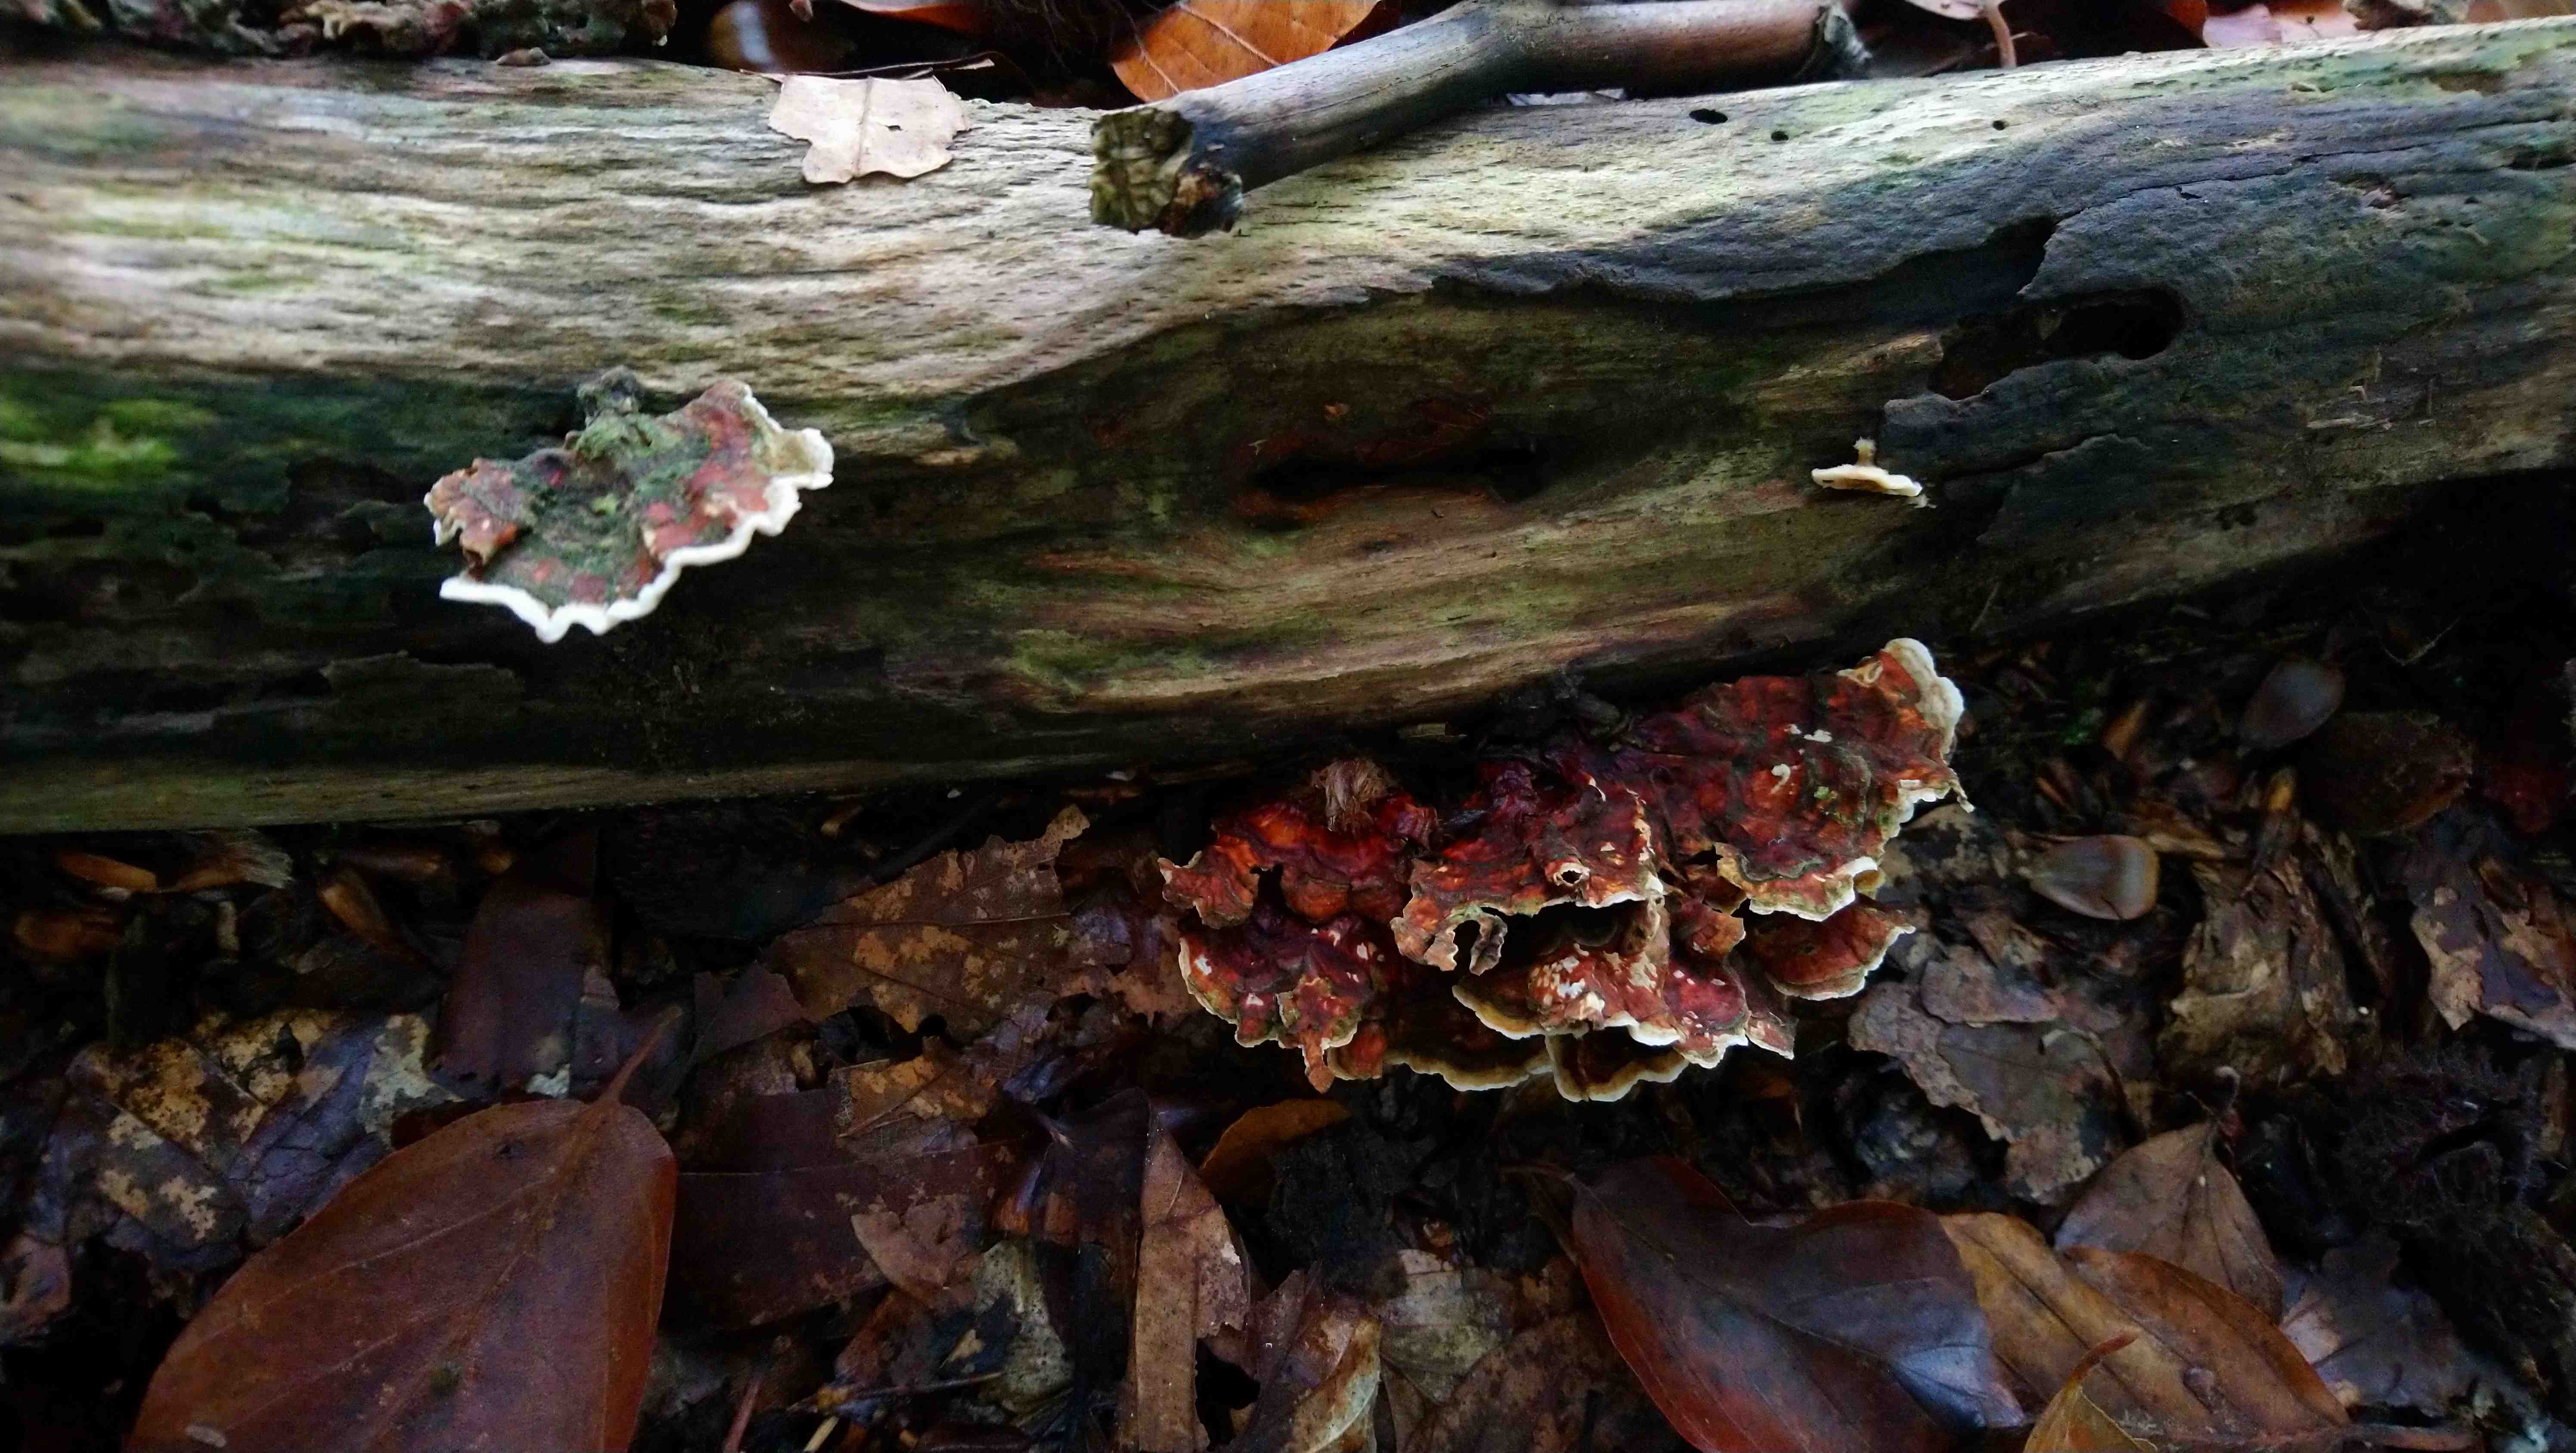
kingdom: Fungi
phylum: Basidiomycota
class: Agaricomycetes
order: Russulales
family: Stereaceae
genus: Stereum
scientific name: Stereum
